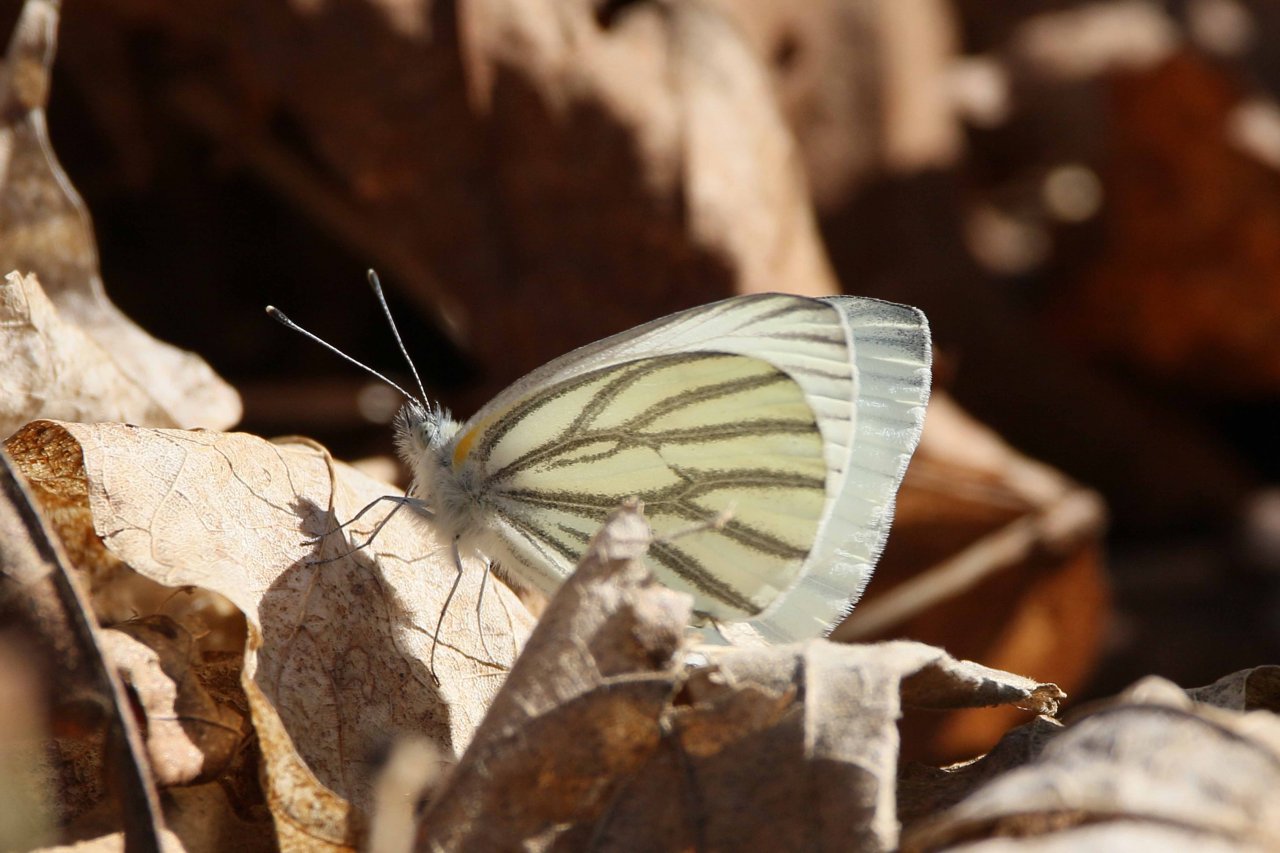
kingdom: Animalia
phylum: Arthropoda
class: Insecta
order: Lepidoptera
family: Pieridae
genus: Pieris
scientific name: Pieris oleracea
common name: Mustard White
